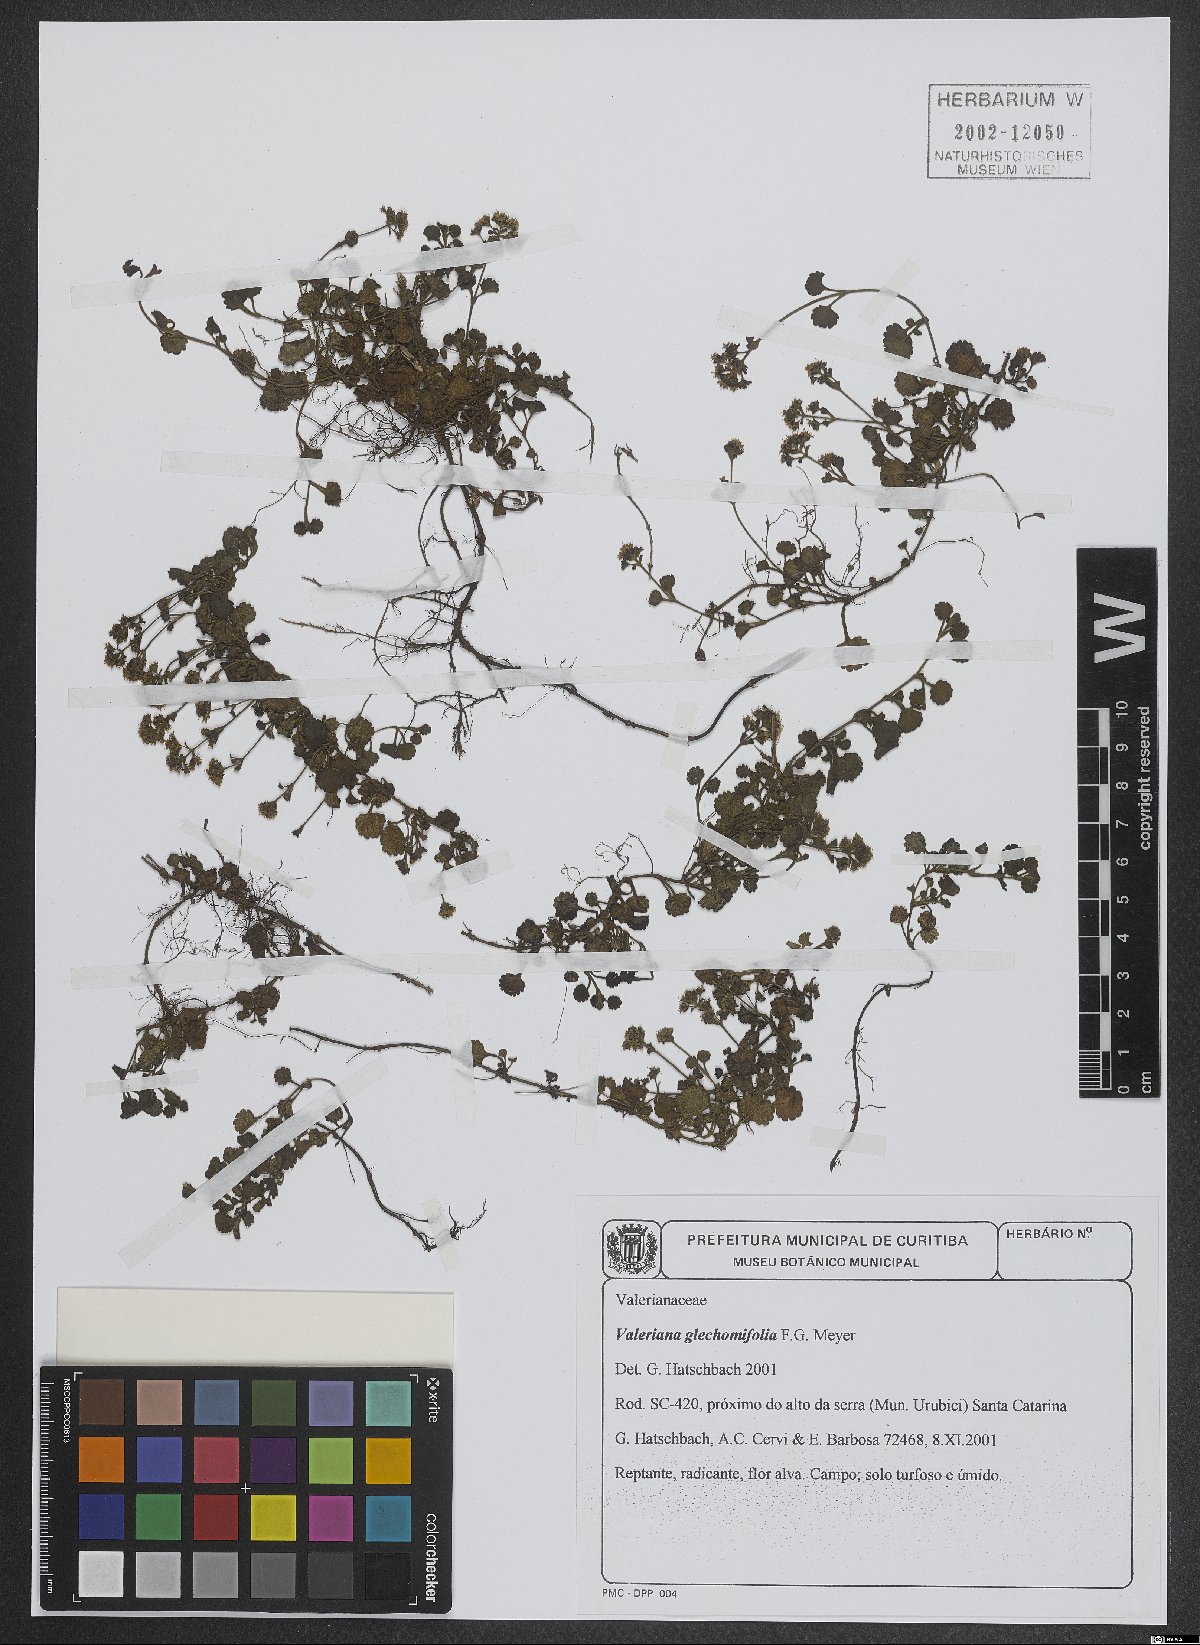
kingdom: Plantae
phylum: Tracheophyta
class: Magnoliopsida
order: Dipsacales
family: Caprifoliaceae
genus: Valeriana
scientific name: Valeriana glechomifolia
